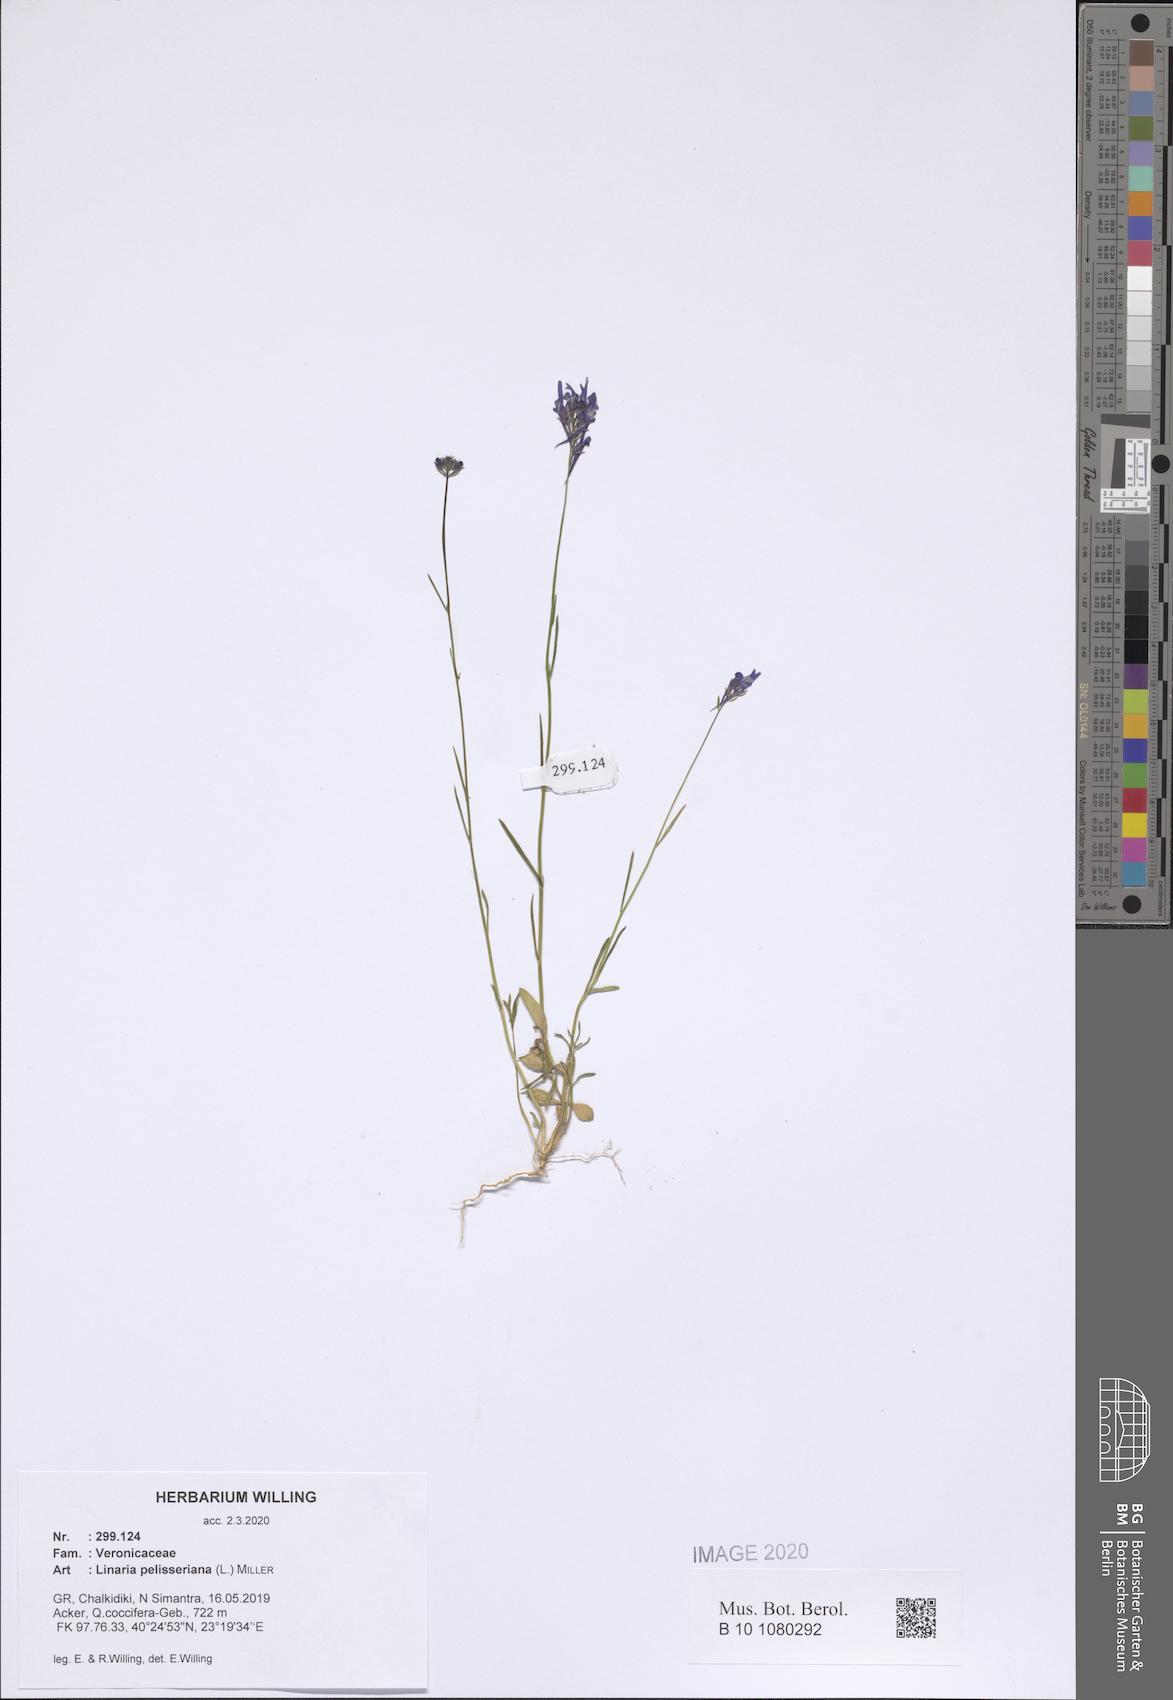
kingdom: Plantae
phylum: Tracheophyta
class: Magnoliopsida
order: Lamiales
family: Plantaginaceae
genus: Linaria
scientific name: Linaria pelisseriana
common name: Jersey toadflax
